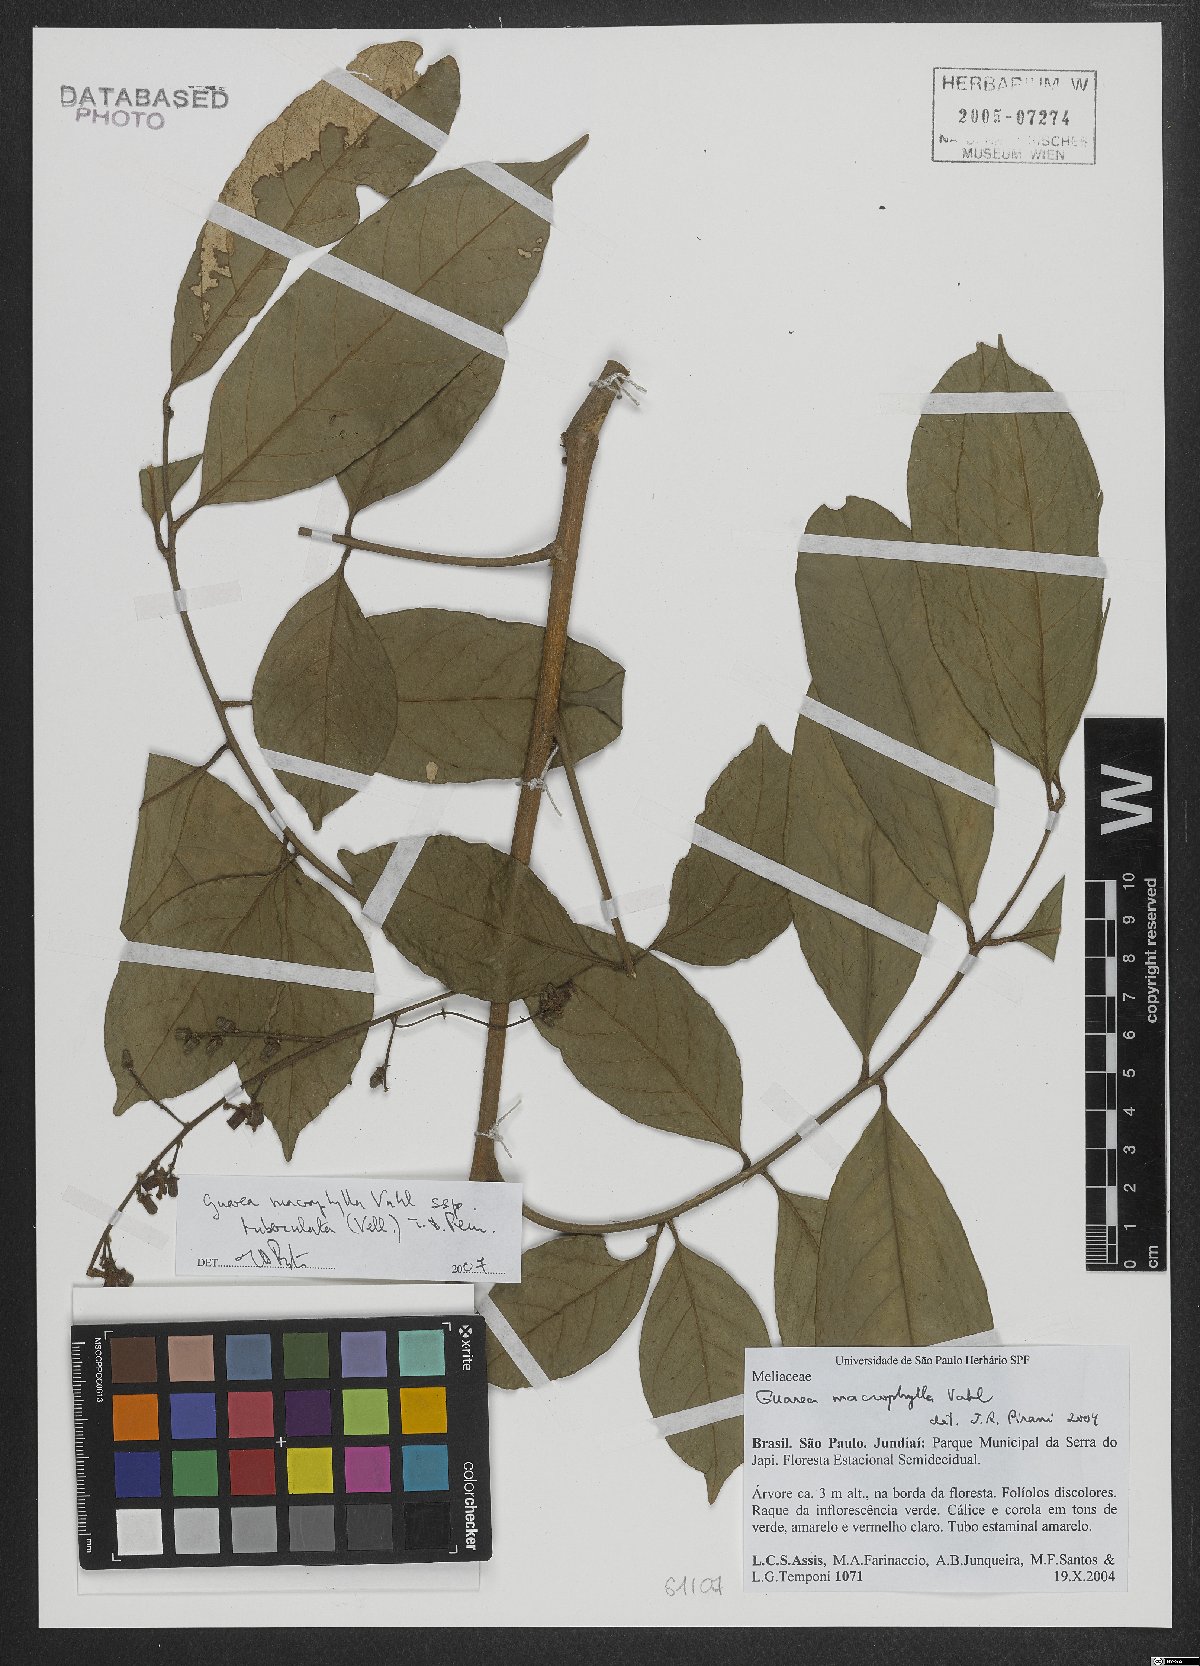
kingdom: Plantae
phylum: Tracheophyta
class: Magnoliopsida
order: Sapindales
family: Meliaceae
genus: Guarea
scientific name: Guarea macrophylla
